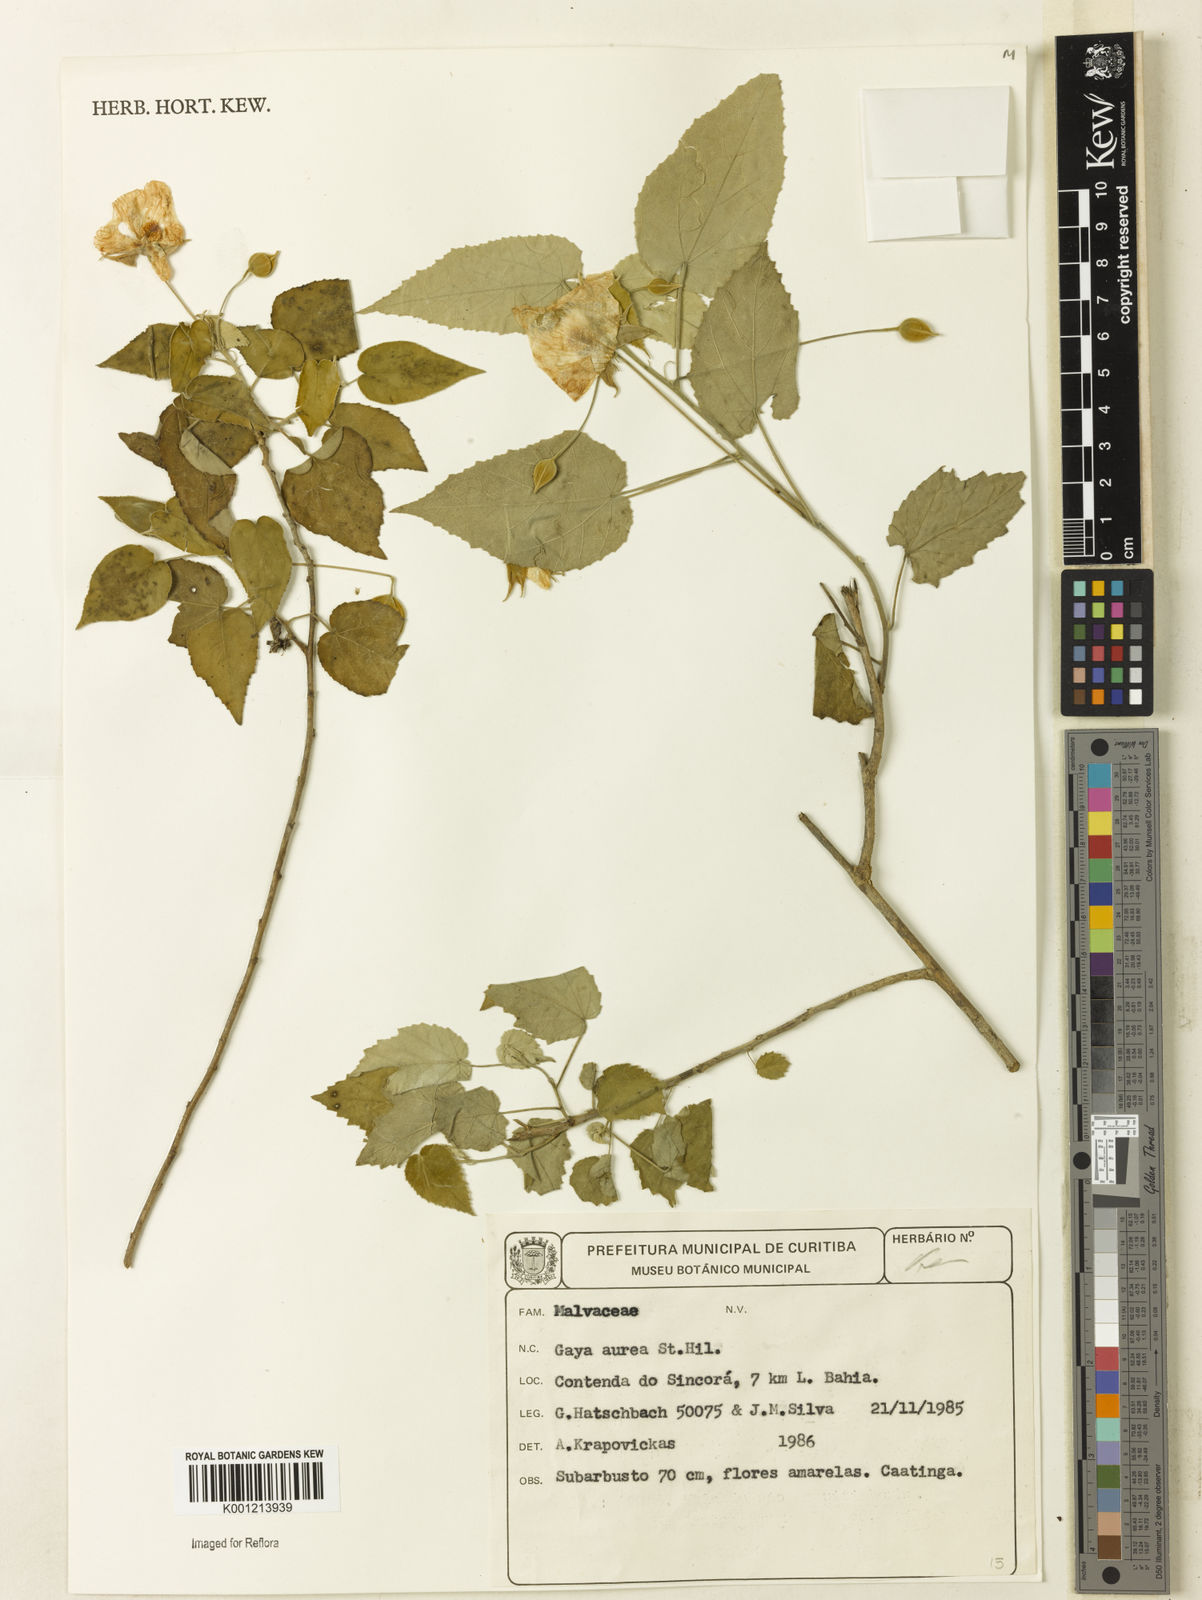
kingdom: Plantae
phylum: Tracheophyta
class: Magnoliopsida
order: Malvales
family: Malvaceae
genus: Gaya
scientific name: Gaya aurea
